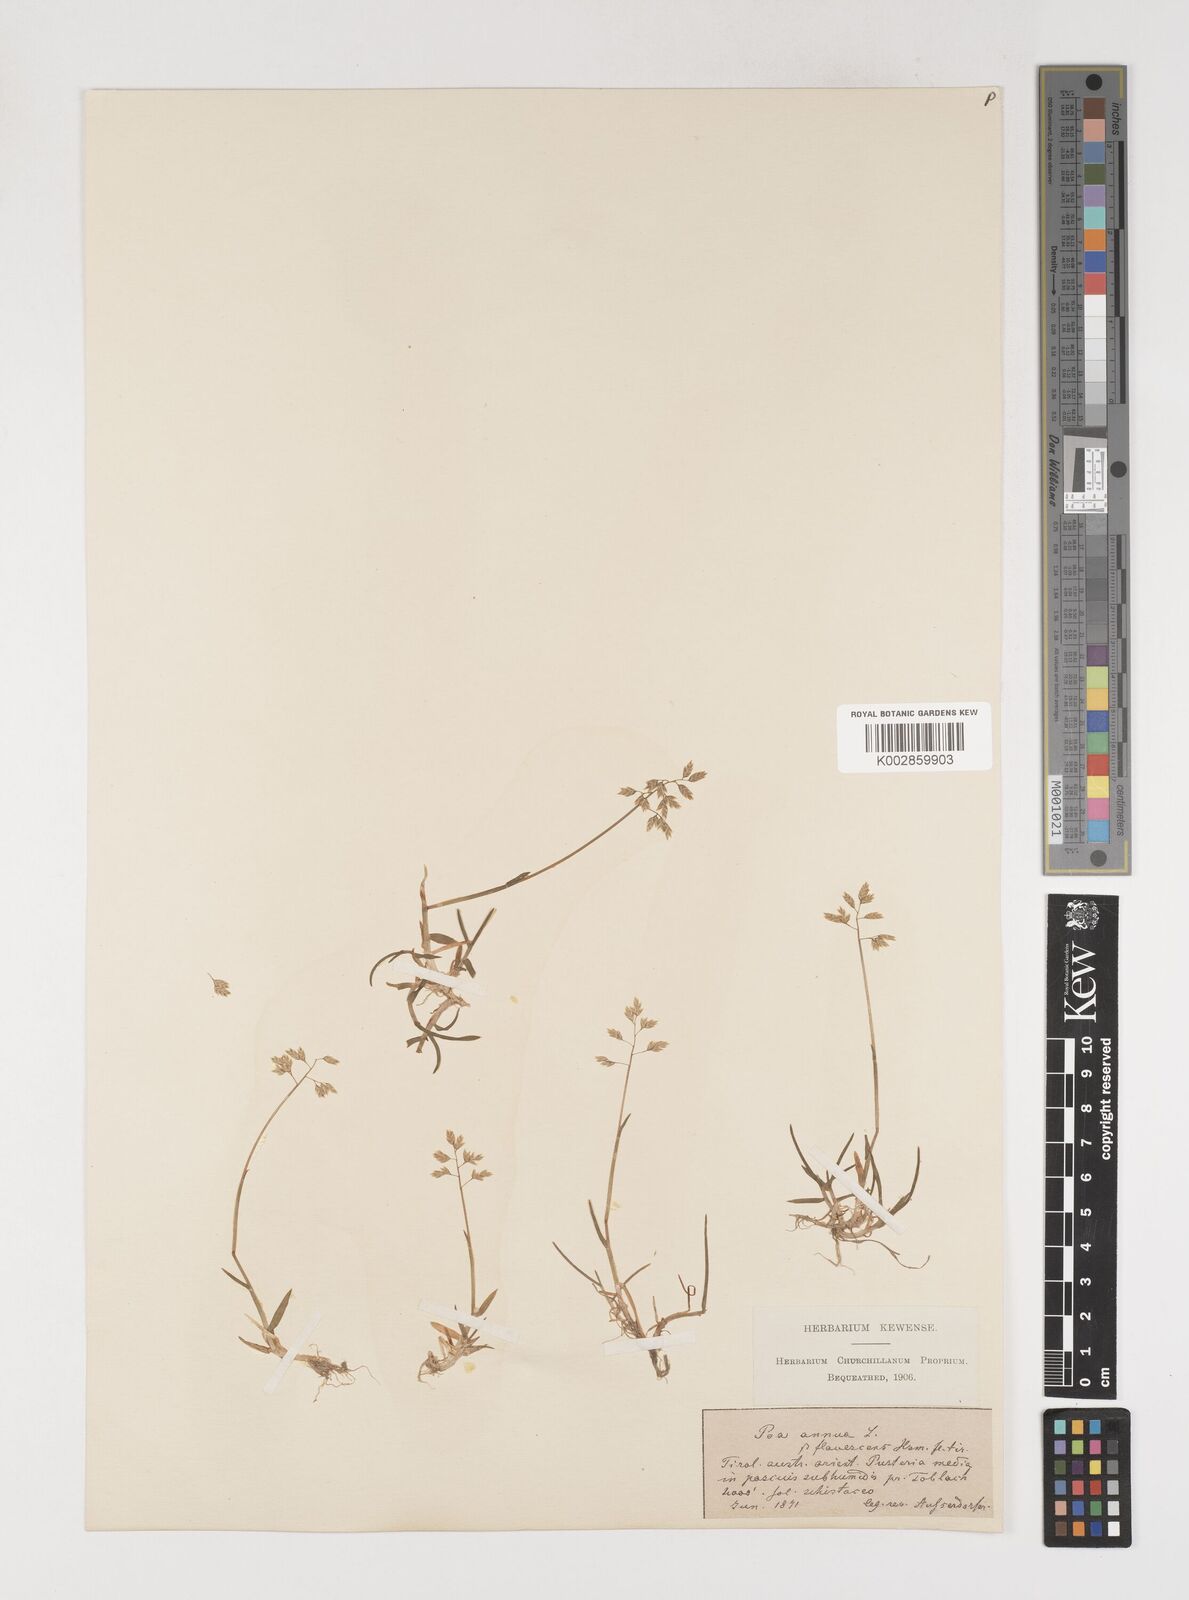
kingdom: Plantae
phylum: Tracheophyta
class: Liliopsida
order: Poales
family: Poaceae
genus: Poa
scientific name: Poa annua
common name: Annual bluegrass
